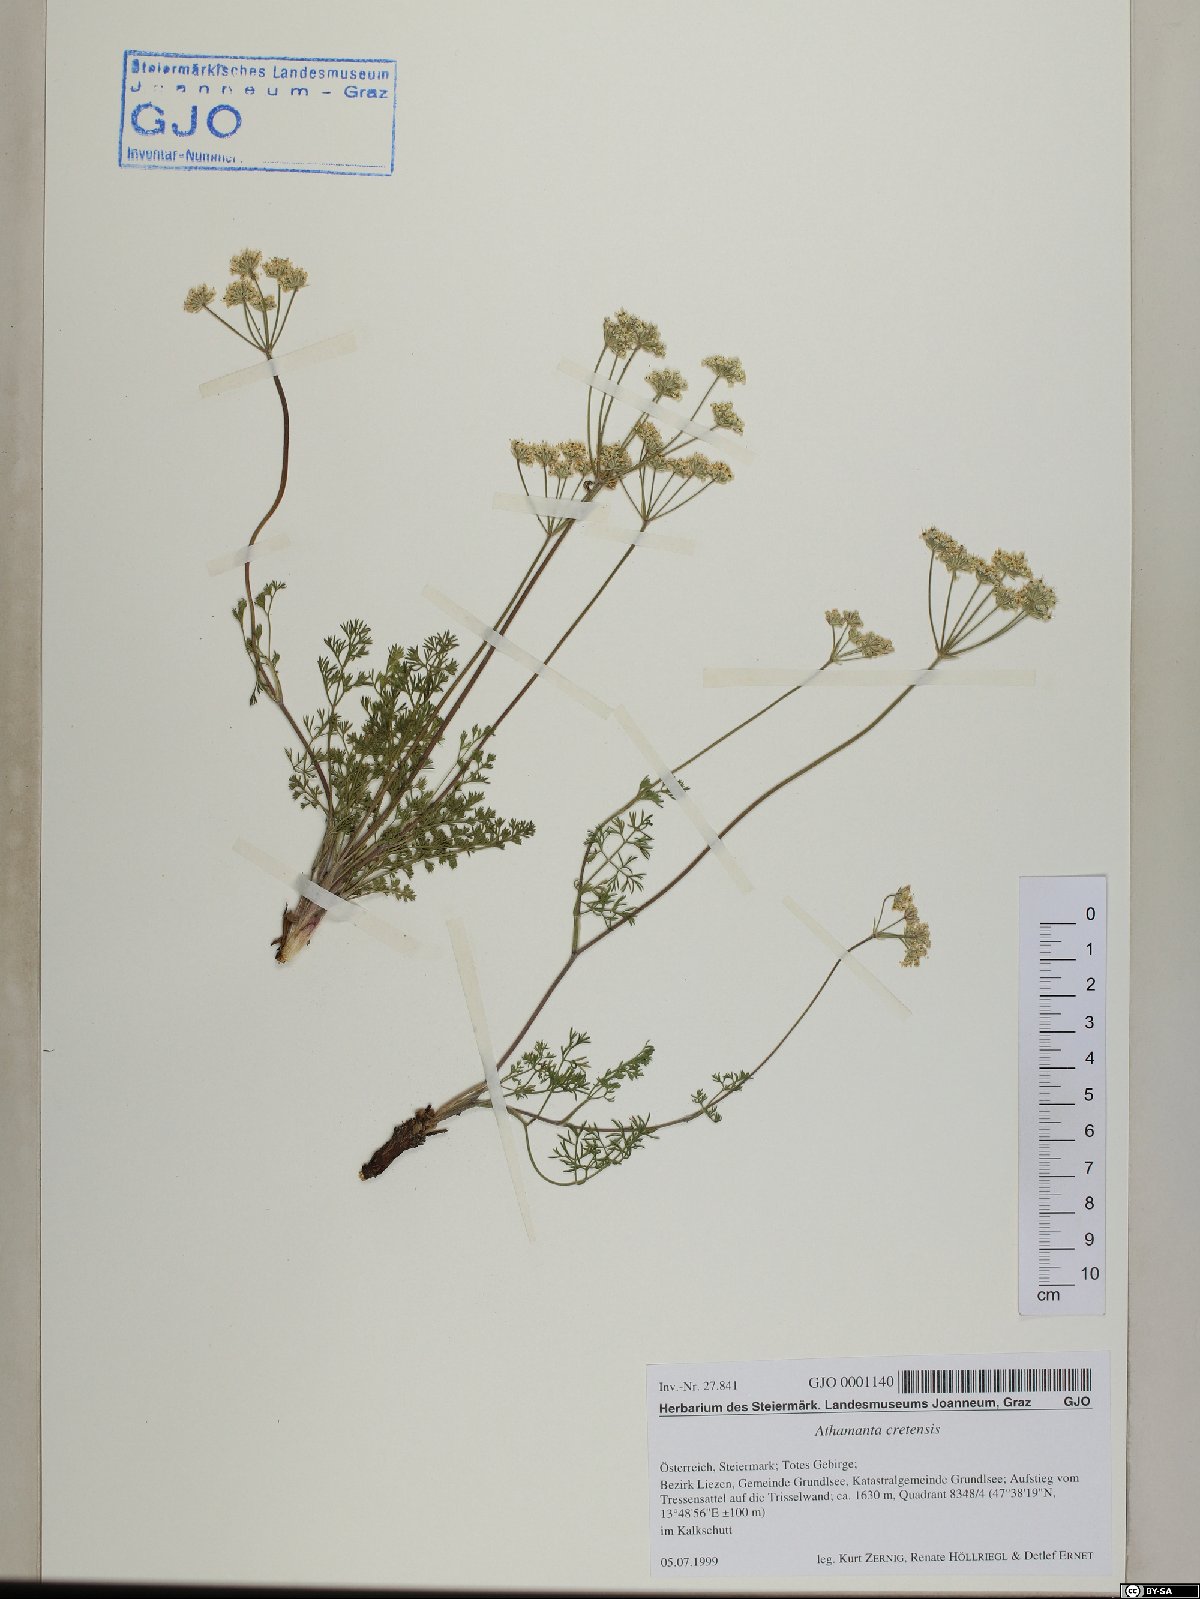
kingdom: Plantae
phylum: Tracheophyta
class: Magnoliopsida
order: Apiales
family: Apiaceae
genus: Athamanta
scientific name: Athamanta cretensis
